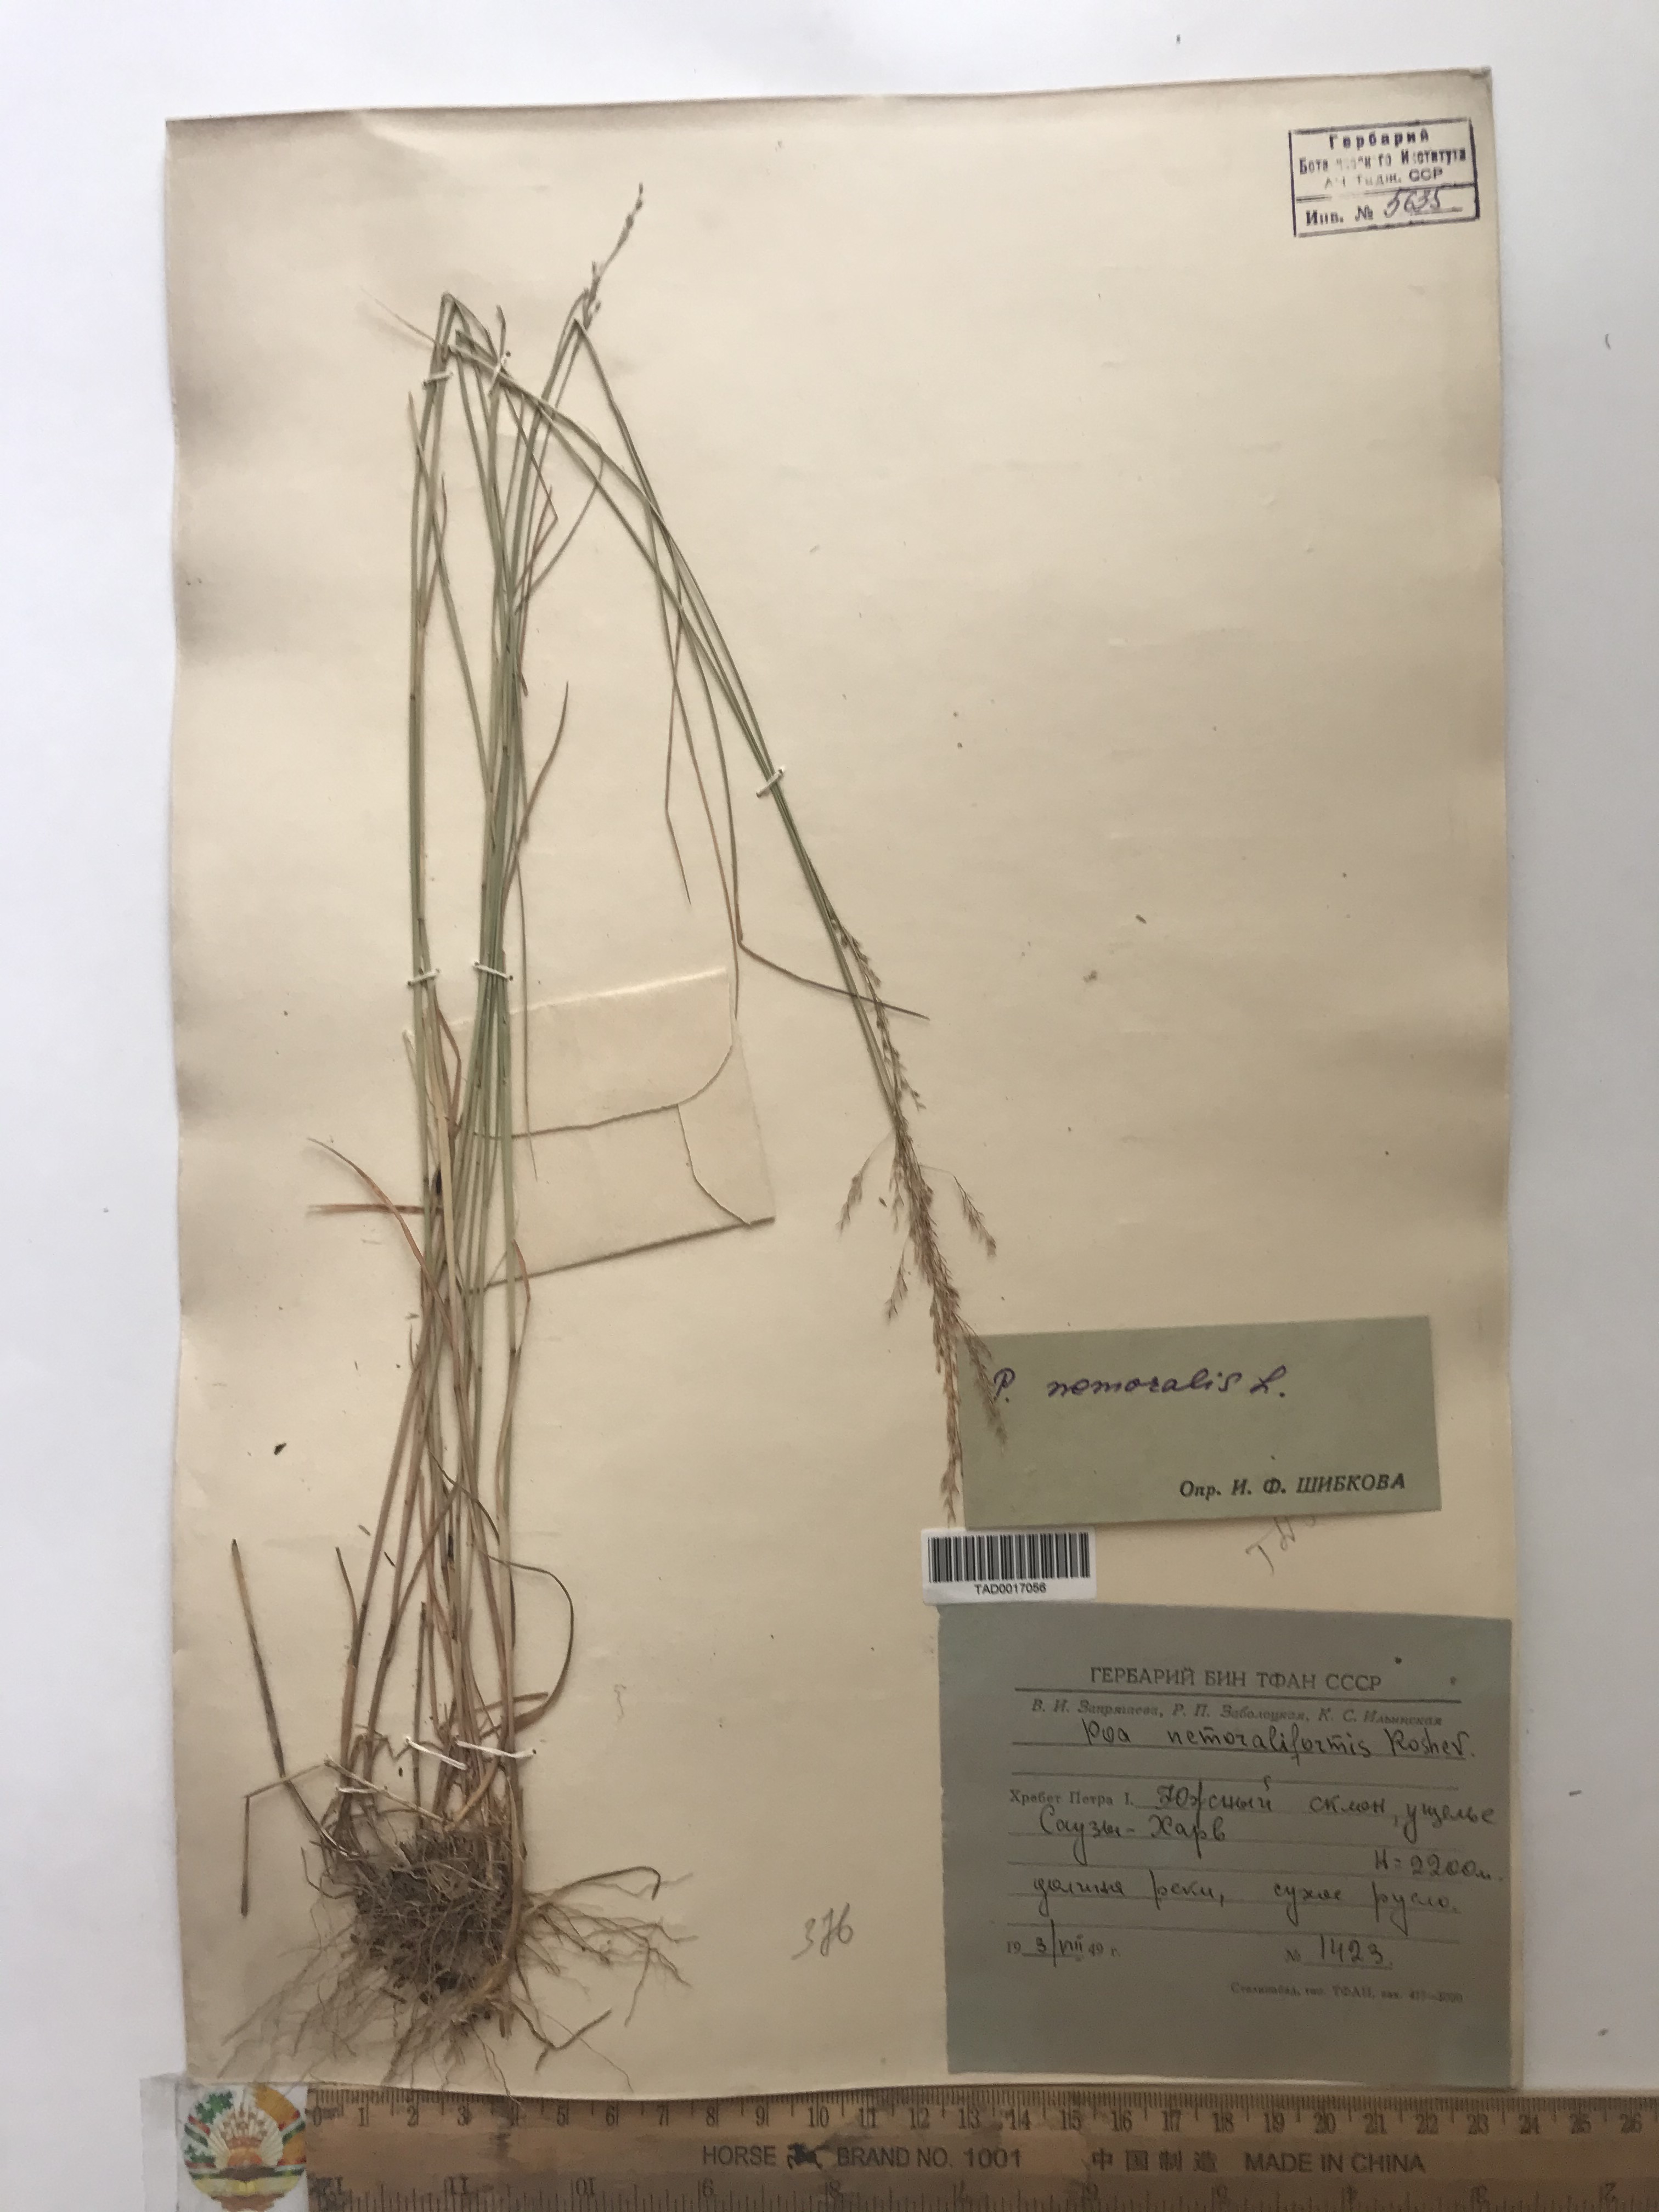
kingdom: Plantae
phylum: Tracheophyta
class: Liliopsida
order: Poales
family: Poaceae
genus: Poa
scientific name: Poa nemoralis
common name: Wood bluegrass
